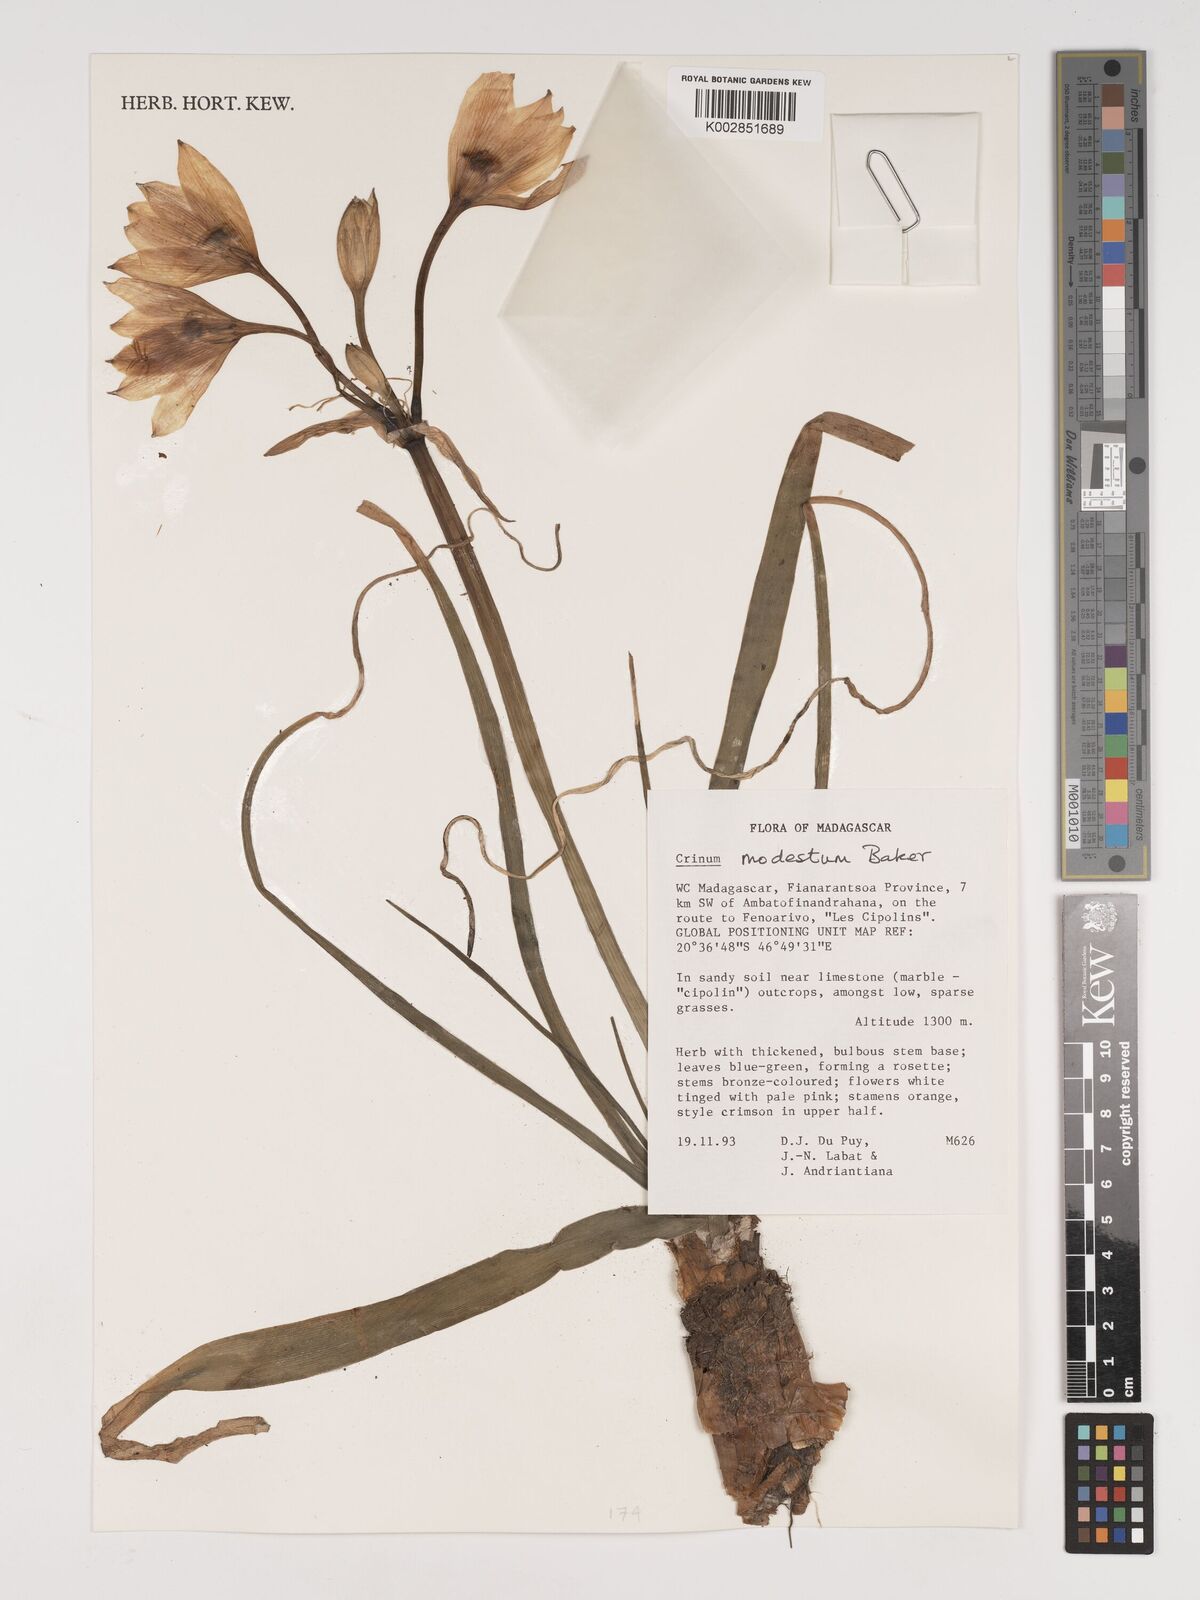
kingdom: Plantae
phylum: Tracheophyta
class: Liliopsida
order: Asparagales
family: Amaryllidaceae
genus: Crinum
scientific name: Crinum modestum
